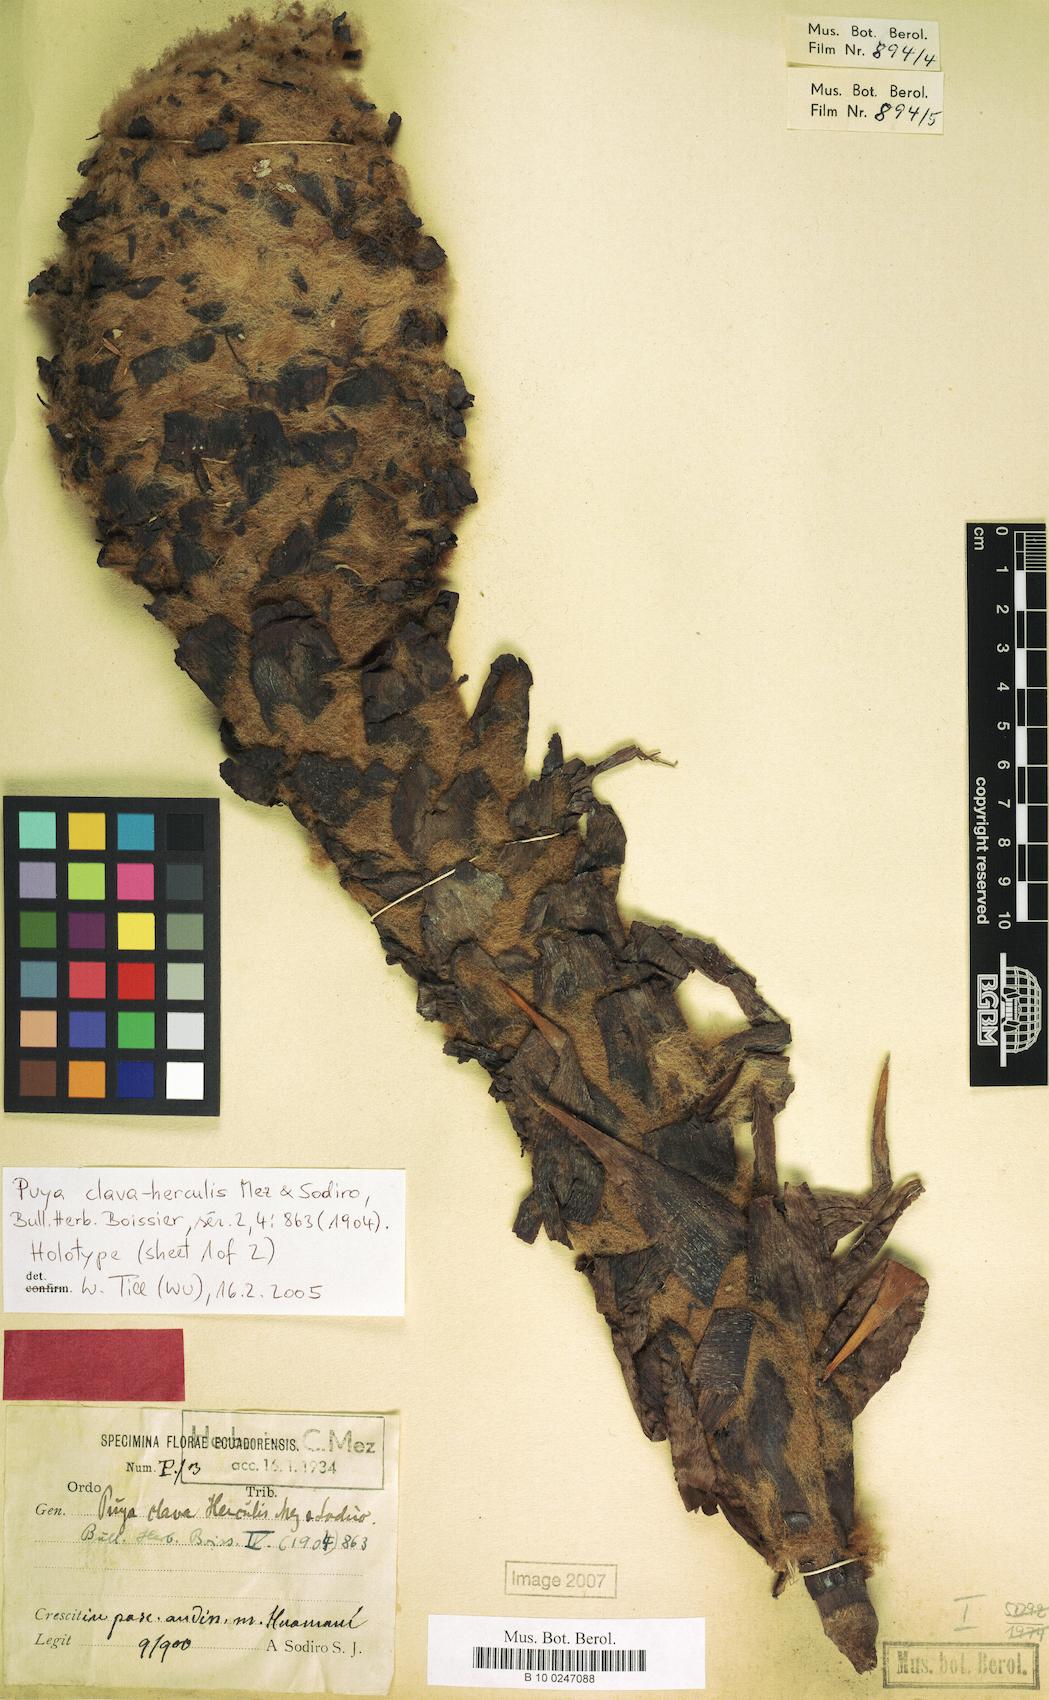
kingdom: Plantae
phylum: Tracheophyta
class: Liliopsida
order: Poales
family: Bromeliaceae
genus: Puya
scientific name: Puya clava-herculis
